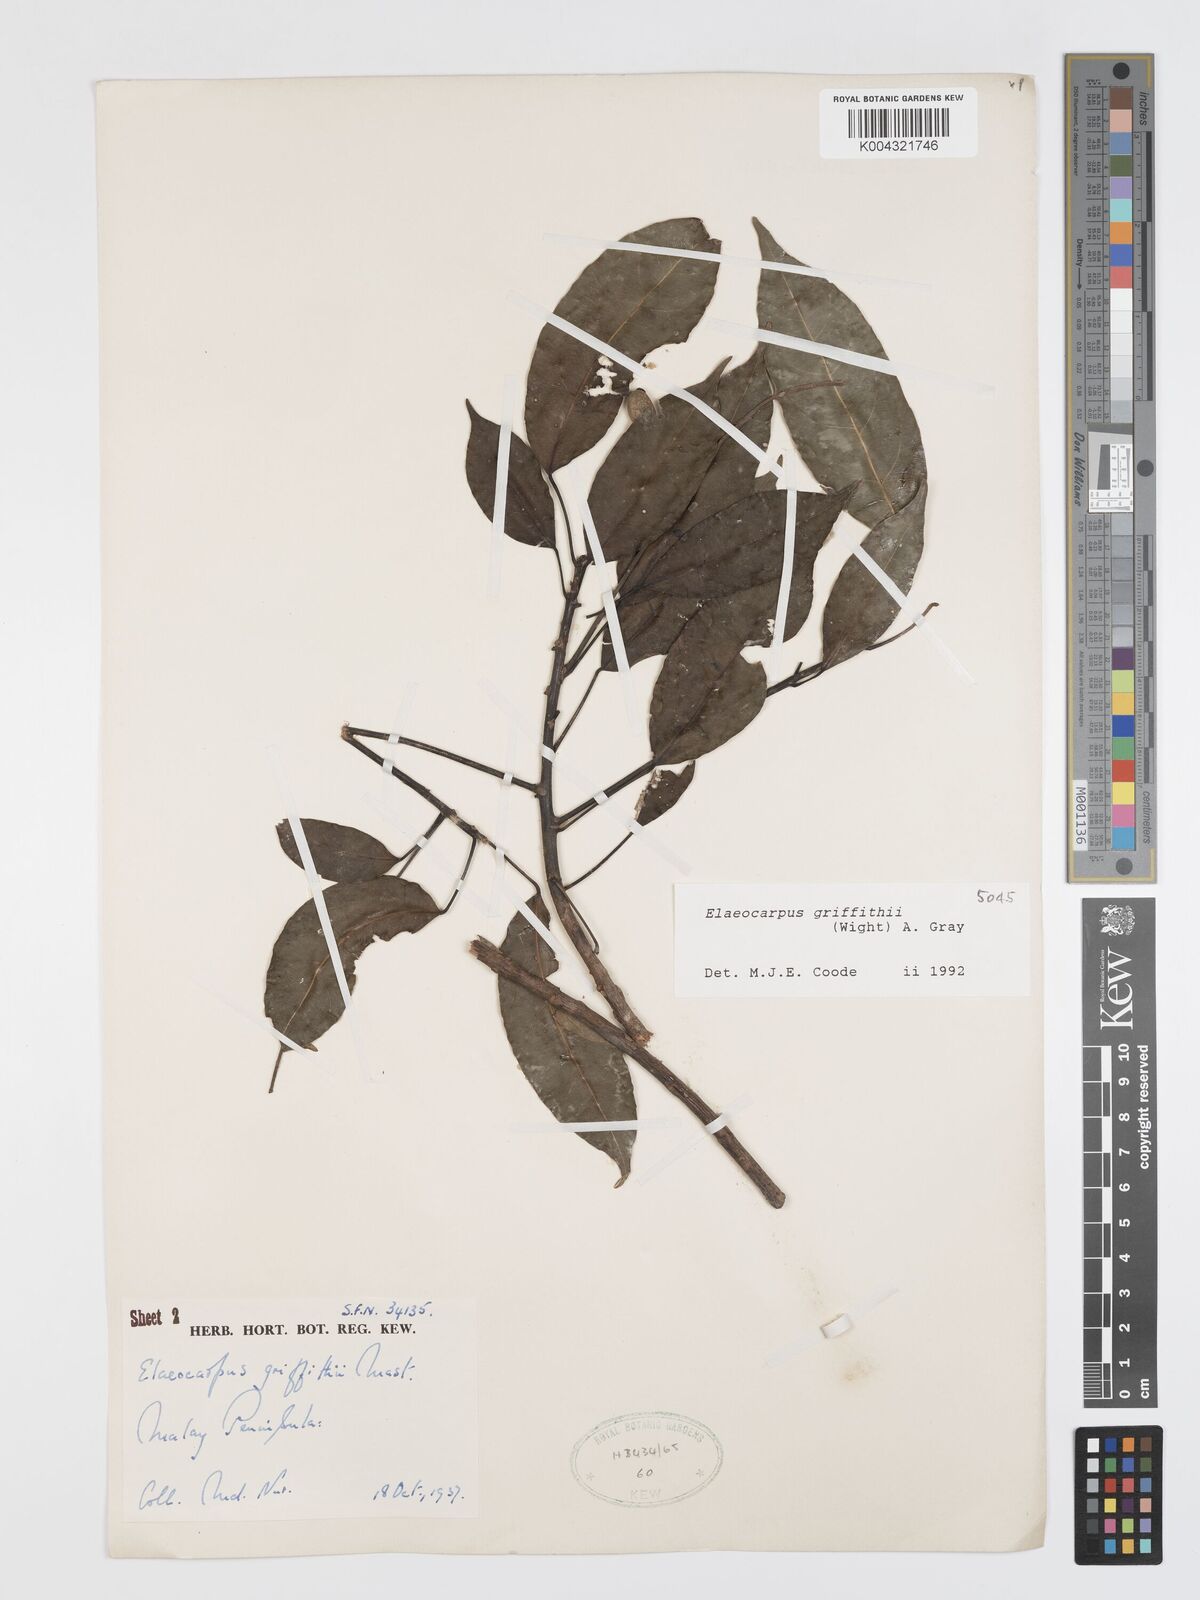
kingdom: Plantae
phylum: Tracheophyta
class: Magnoliopsida
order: Oxalidales
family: Elaeocarpaceae
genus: Elaeocarpus
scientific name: Elaeocarpus griffithii
